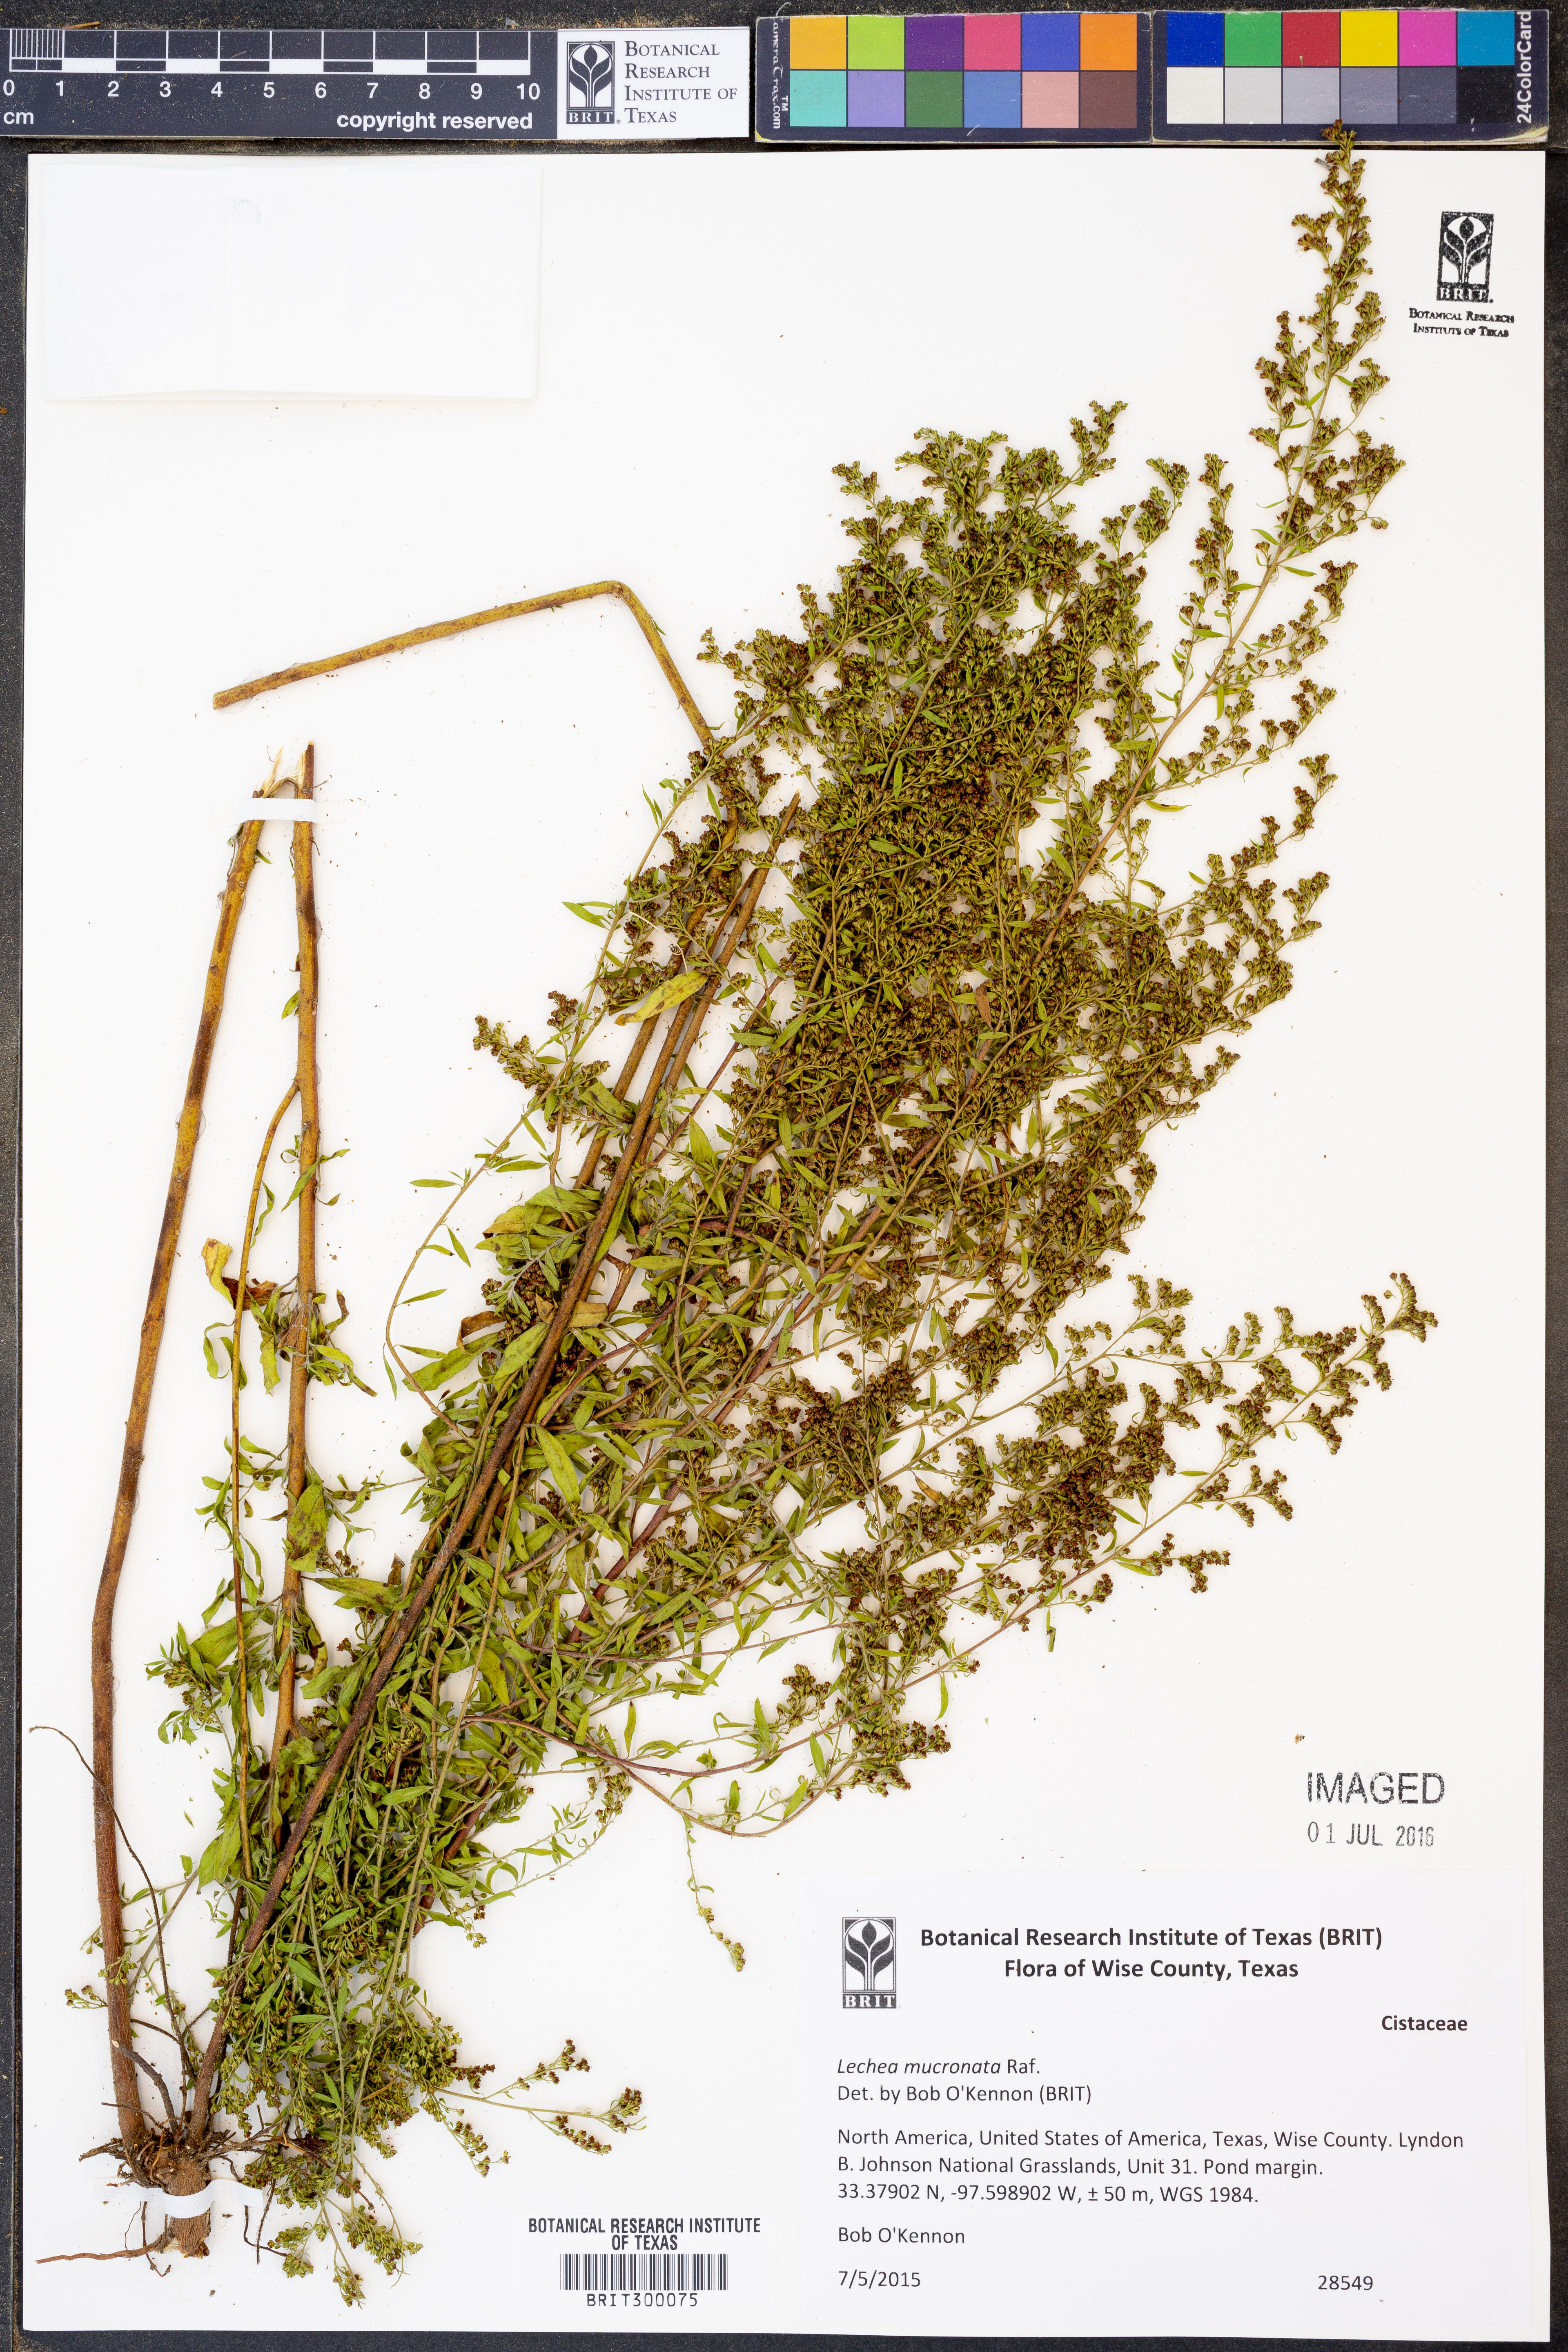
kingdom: Plantae
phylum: Tracheophyta
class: Magnoliopsida
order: Malvales
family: Cistaceae
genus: Lechea
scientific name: Lechea mucronata
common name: Hairy pinweed
